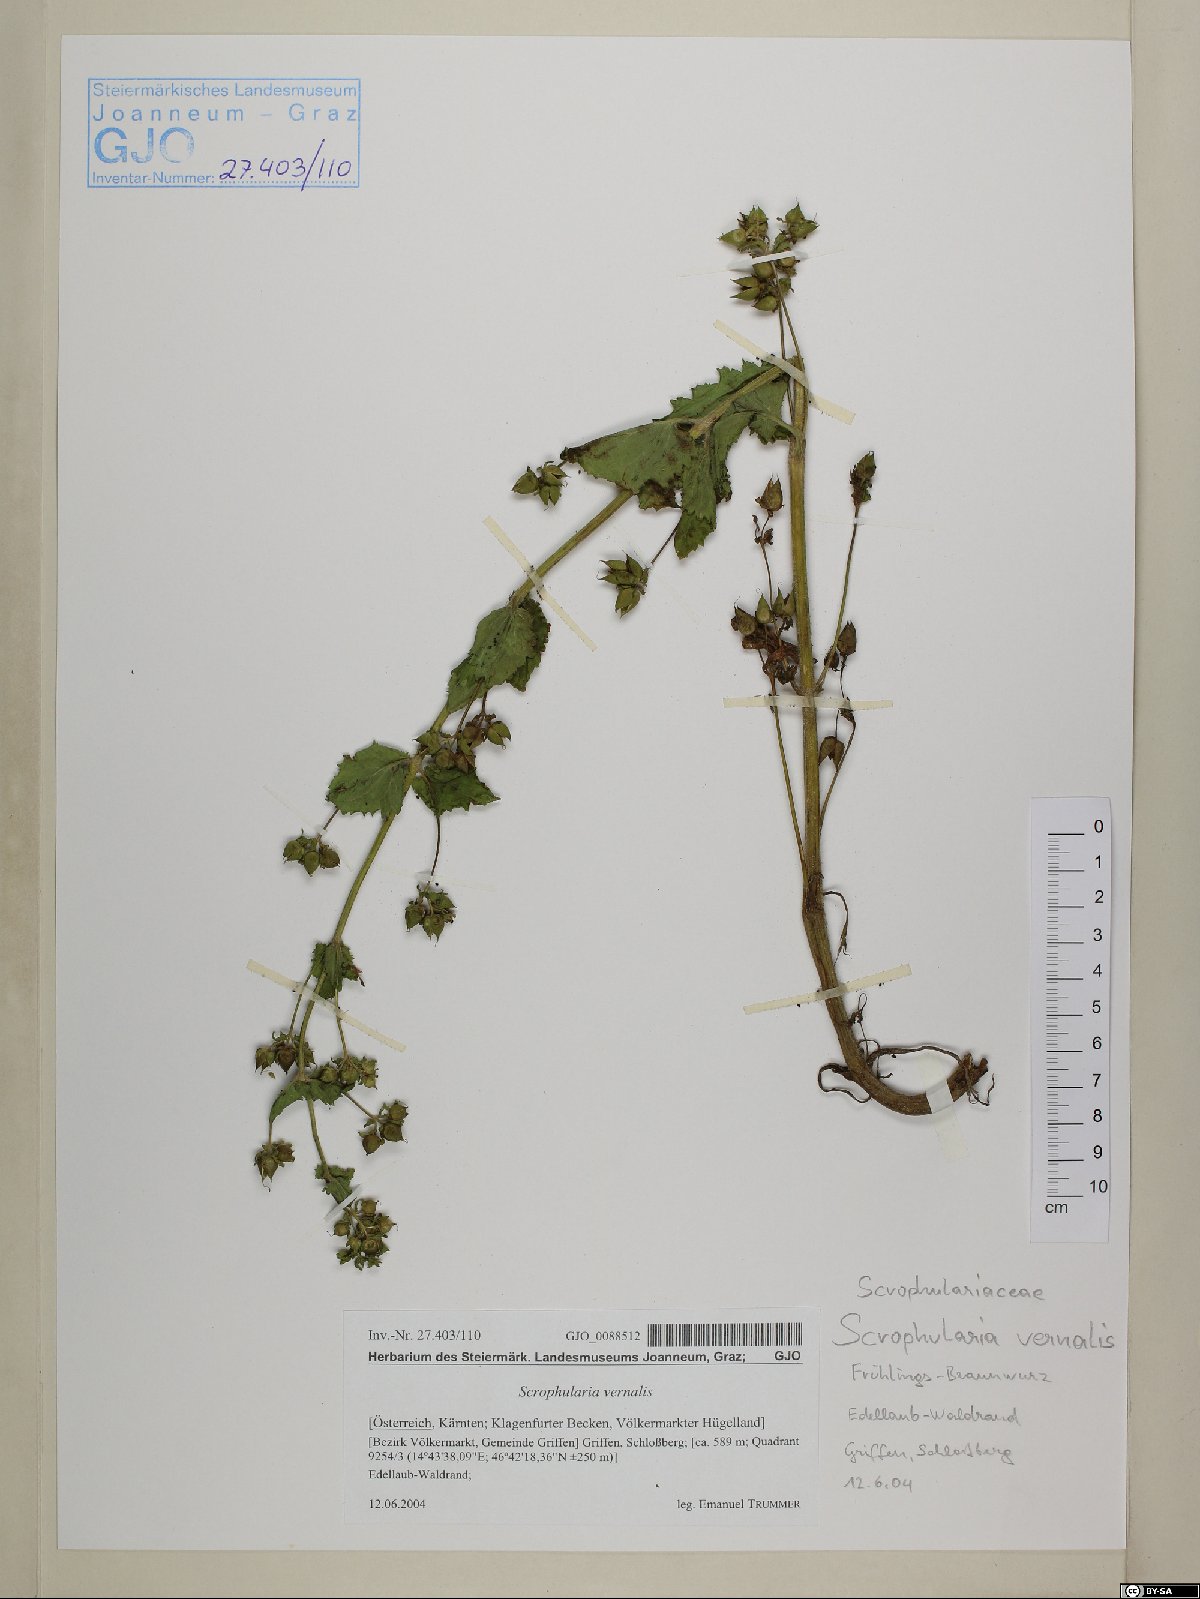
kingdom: Plantae
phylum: Tracheophyta
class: Magnoliopsida
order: Lamiales
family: Scrophulariaceae
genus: Scrophularia
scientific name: Scrophularia vernalis
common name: Yellow figwort
